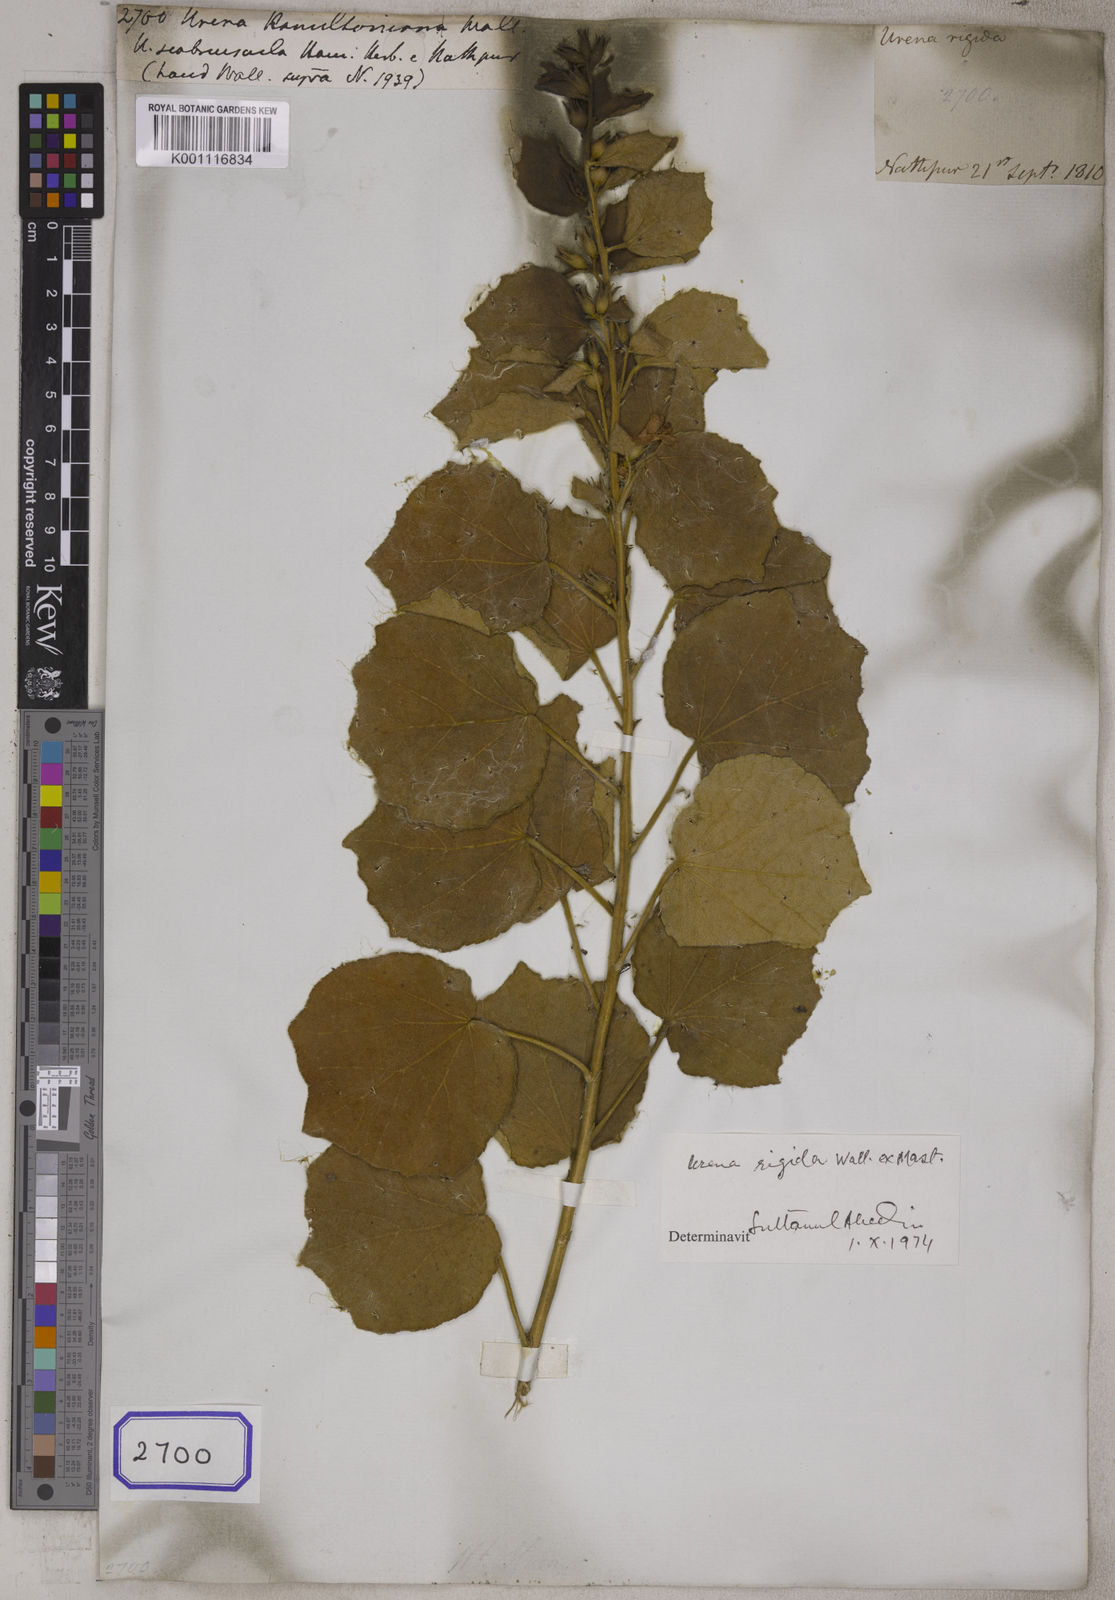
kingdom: Plantae
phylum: Tracheophyta
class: Magnoliopsida
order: Malvales
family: Malvaceae
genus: Urena
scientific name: Urena repanda
